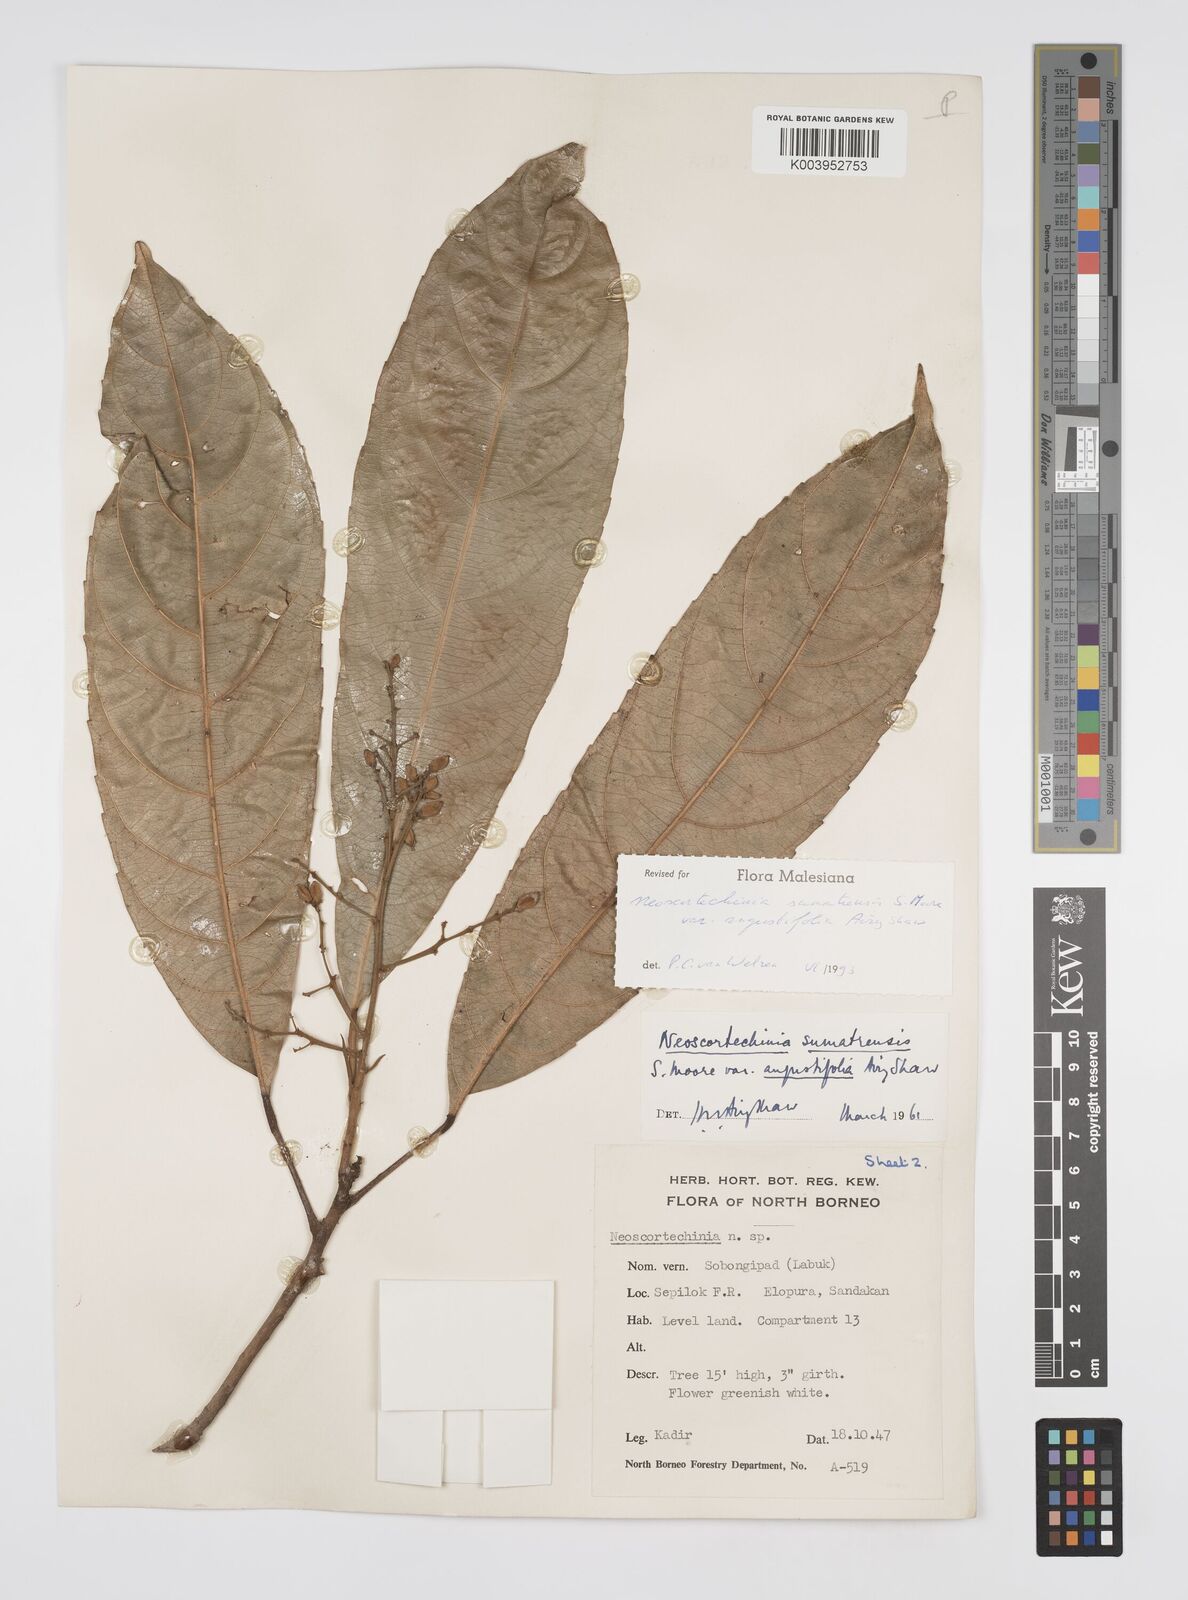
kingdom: Plantae
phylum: Tracheophyta
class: Magnoliopsida
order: Malpighiales
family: Euphorbiaceae
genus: Neoscortechinia
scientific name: Neoscortechinia angustifolia
